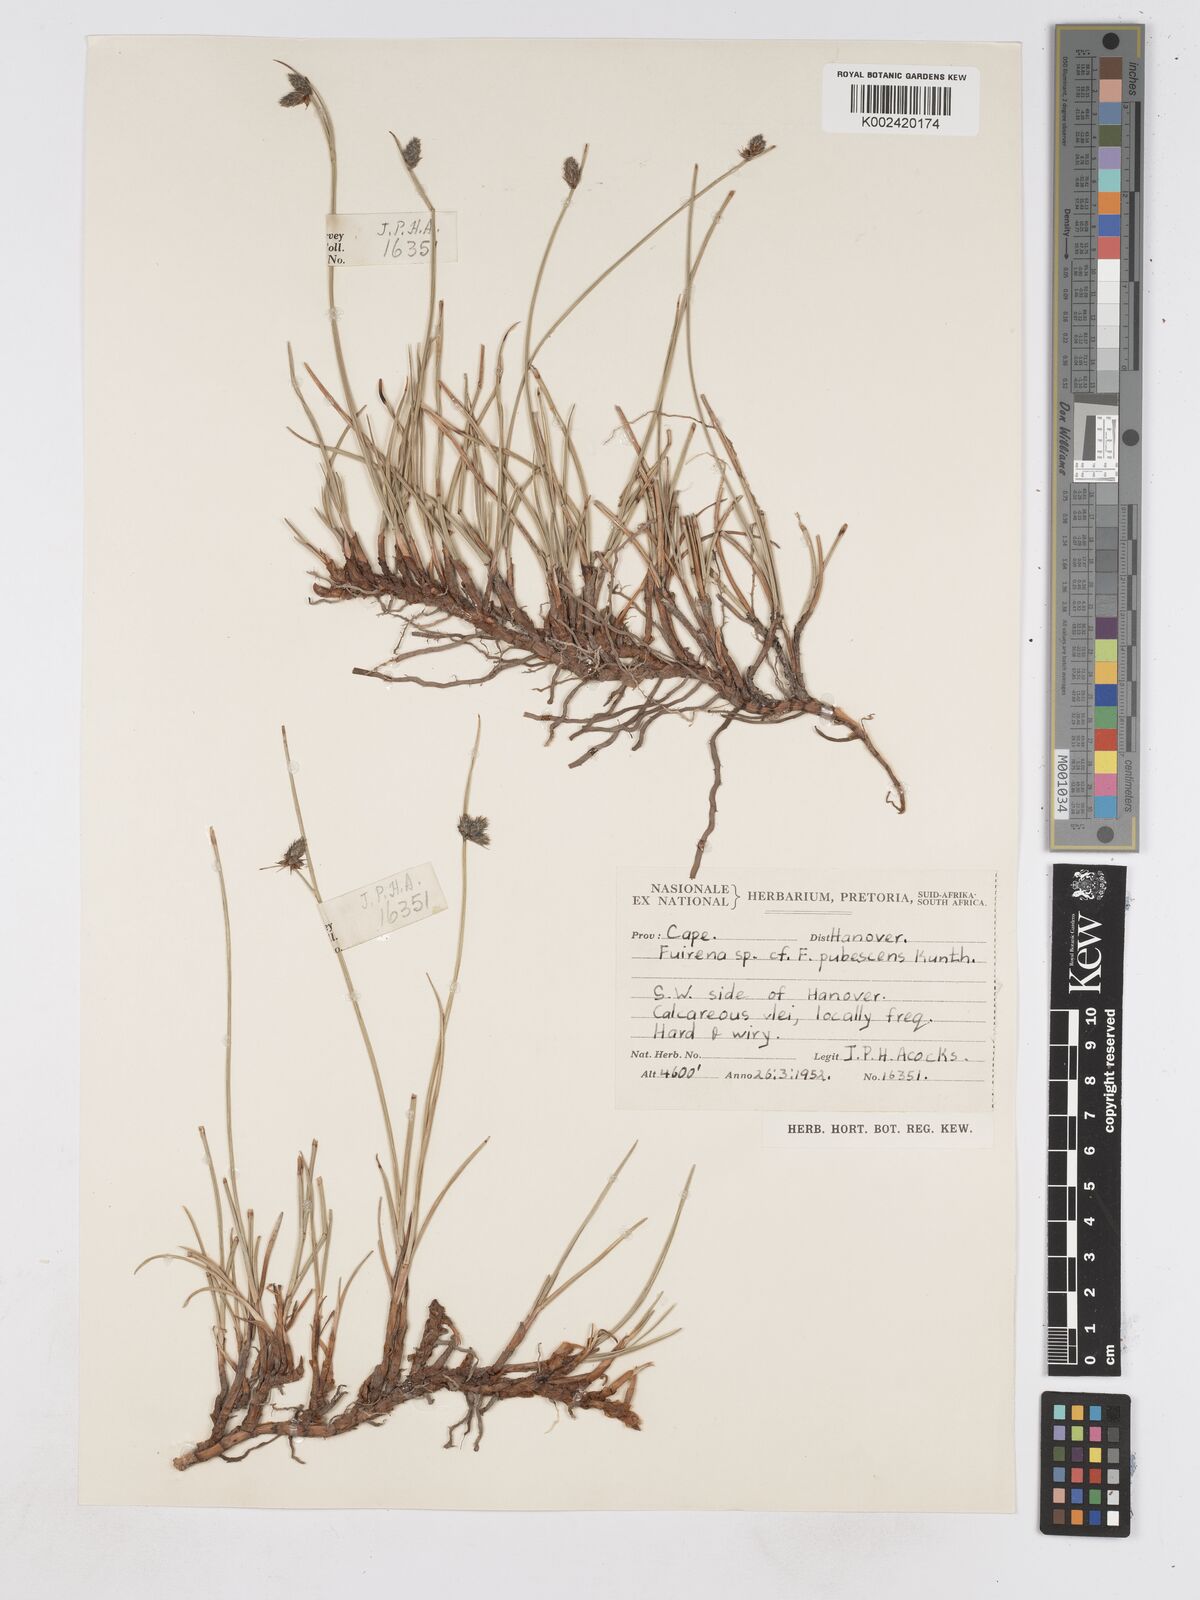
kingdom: Plantae
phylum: Tracheophyta
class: Liliopsida
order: Poales
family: Cyperaceae
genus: Fuirena
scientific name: Fuirena coerulescens
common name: Blue umbrella-sedge
